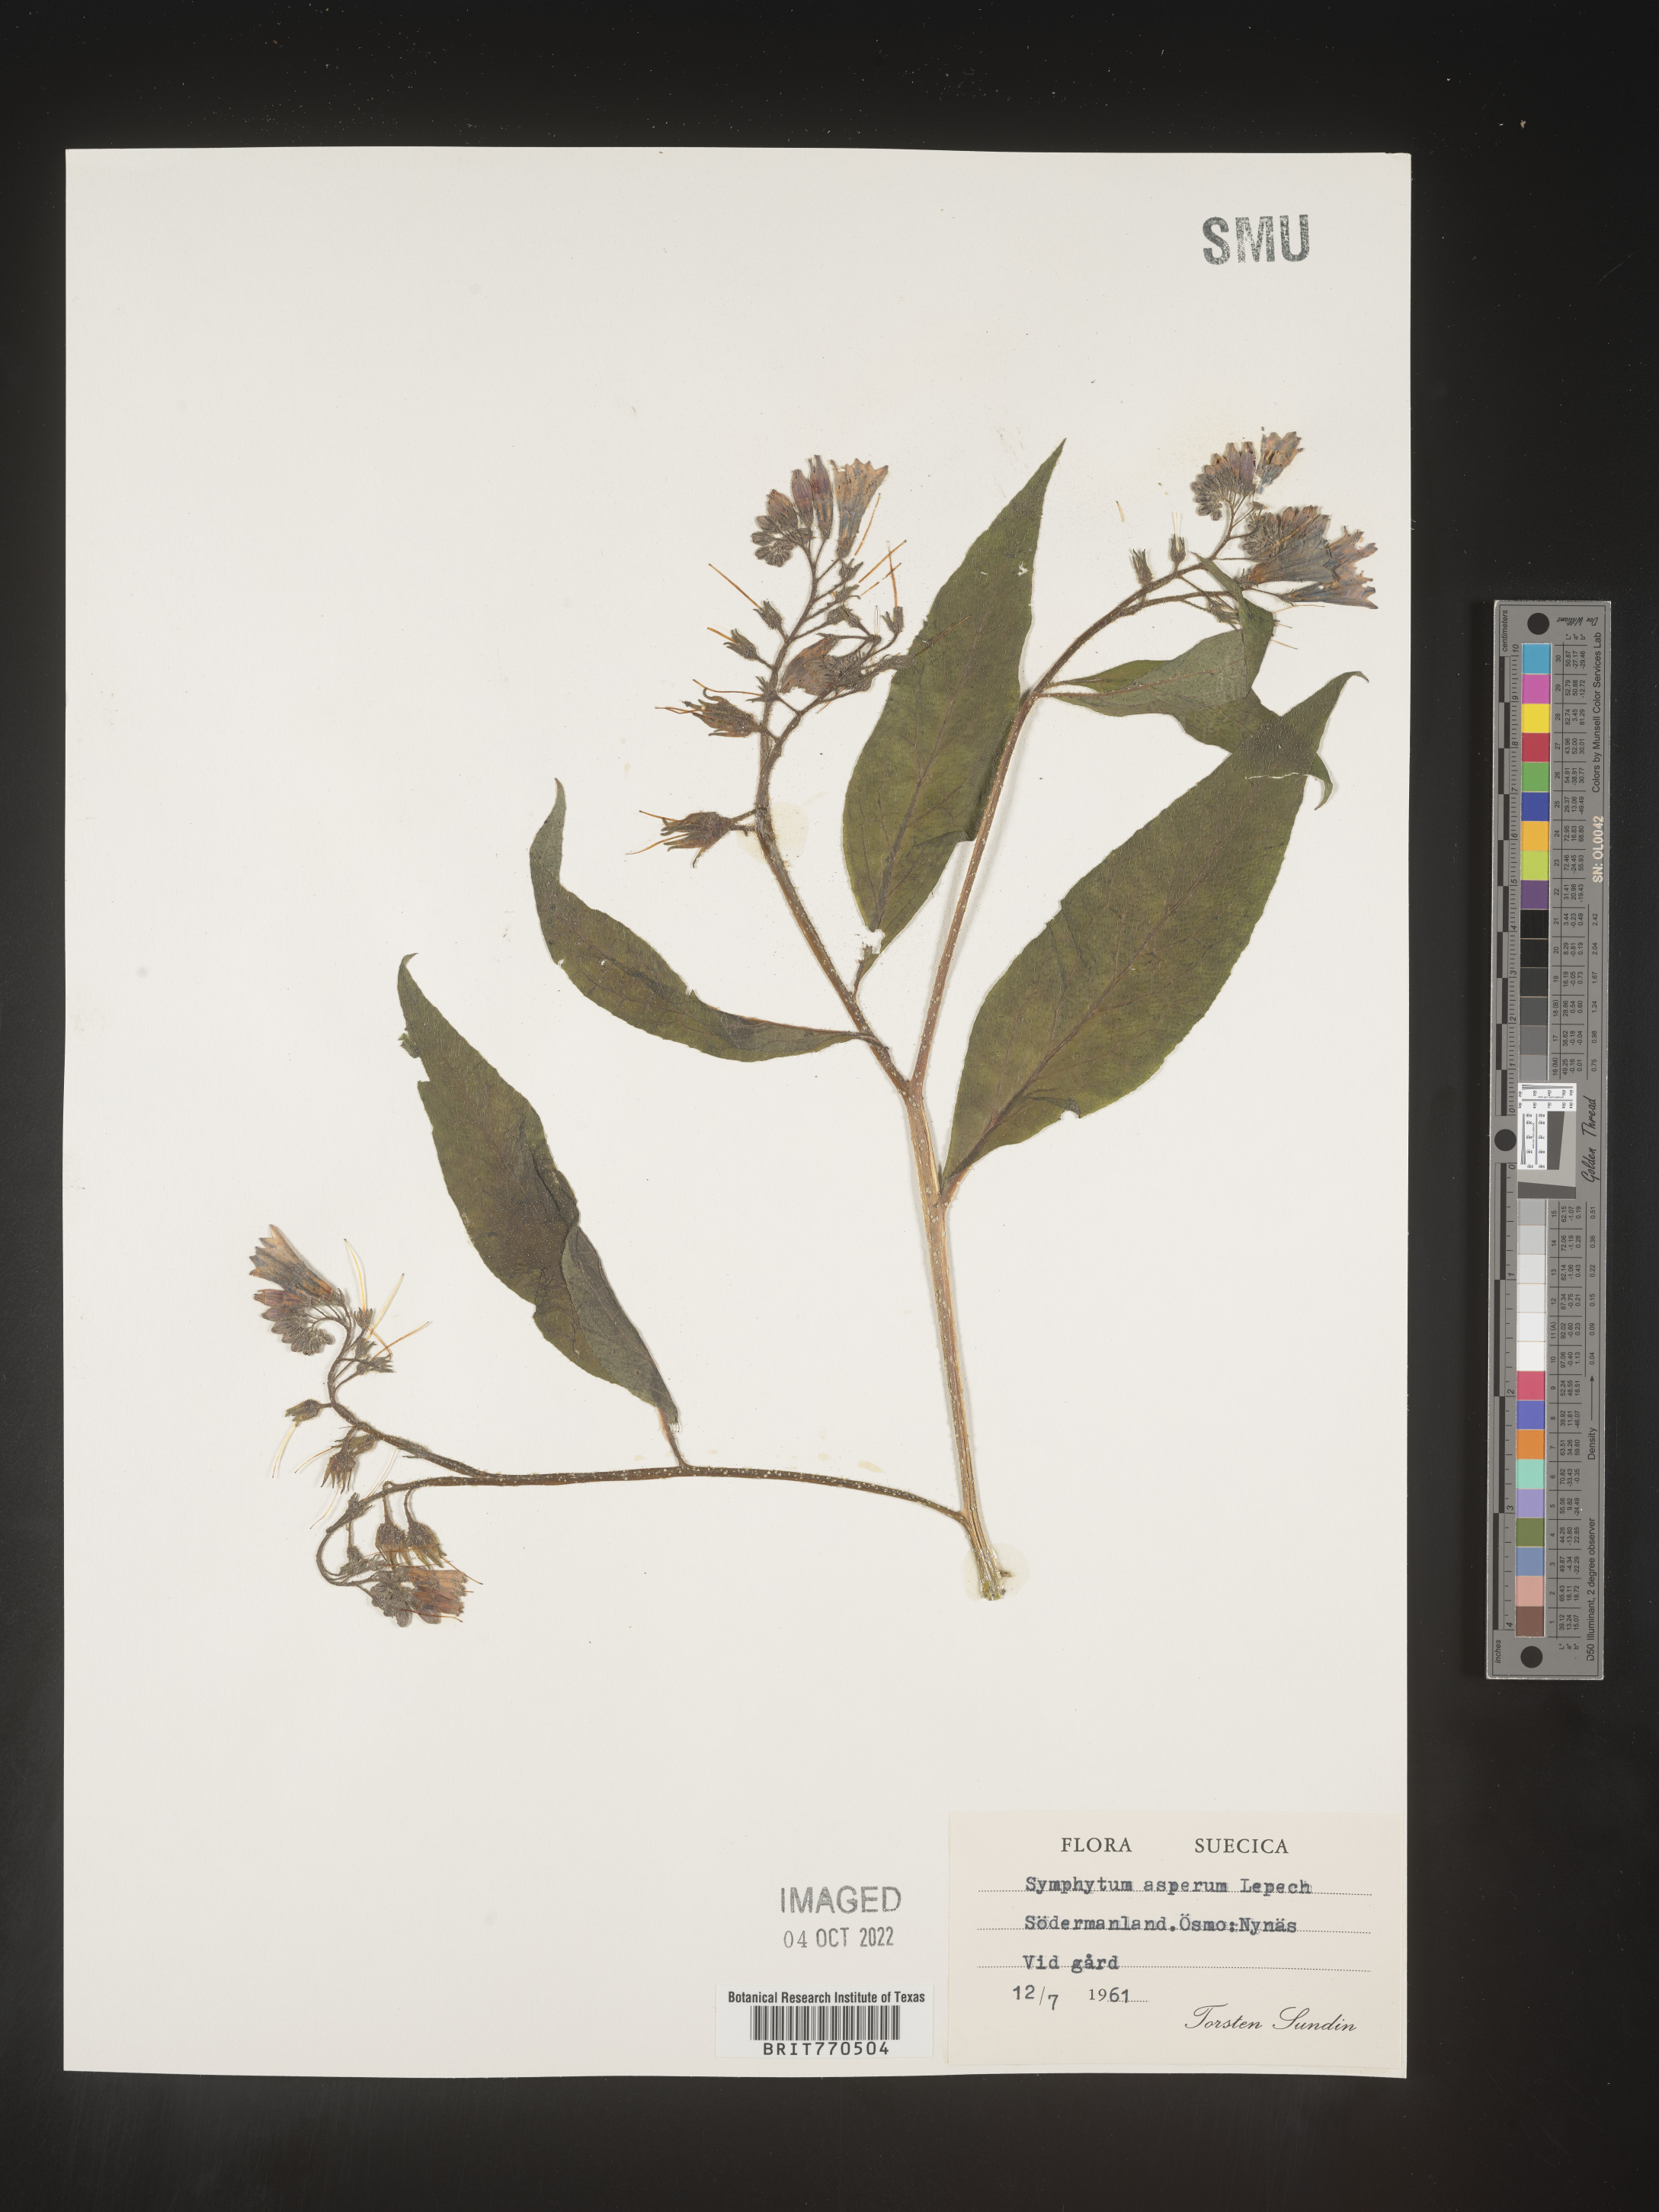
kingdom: Plantae
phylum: Tracheophyta
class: Magnoliopsida
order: Boraginales
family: Boraginaceae
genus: Symphytum
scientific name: Symphytum
